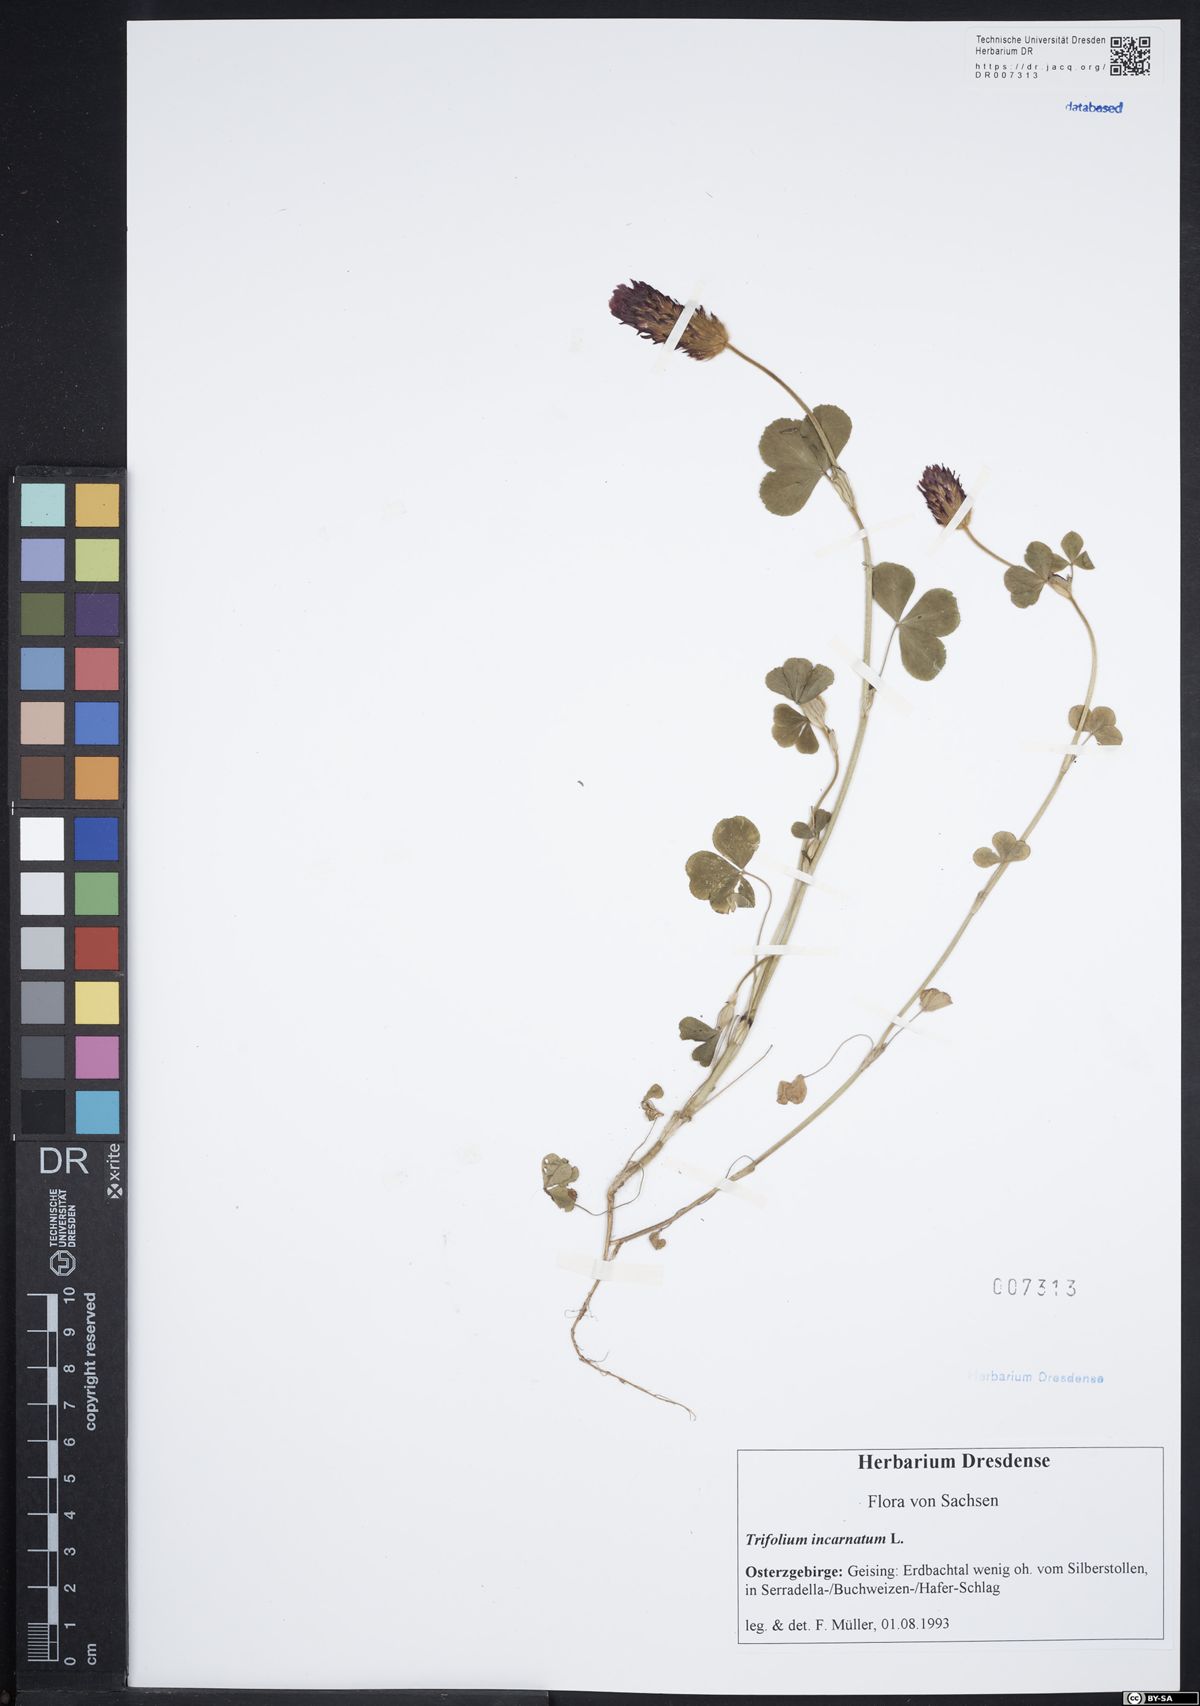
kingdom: Plantae
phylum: Tracheophyta
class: Magnoliopsida
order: Fabales
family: Fabaceae
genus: Trifolium
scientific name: Trifolium incarnatum
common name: Crimson clover
